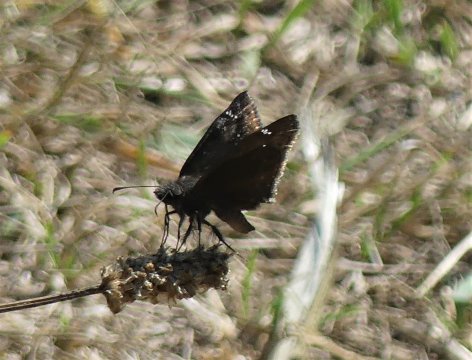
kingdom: Animalia
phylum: Arthropoda
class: Insecta
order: Lepidoptera
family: Hesperiidae
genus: Gesta
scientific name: Gesta
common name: Wild Indigo Duskywing
